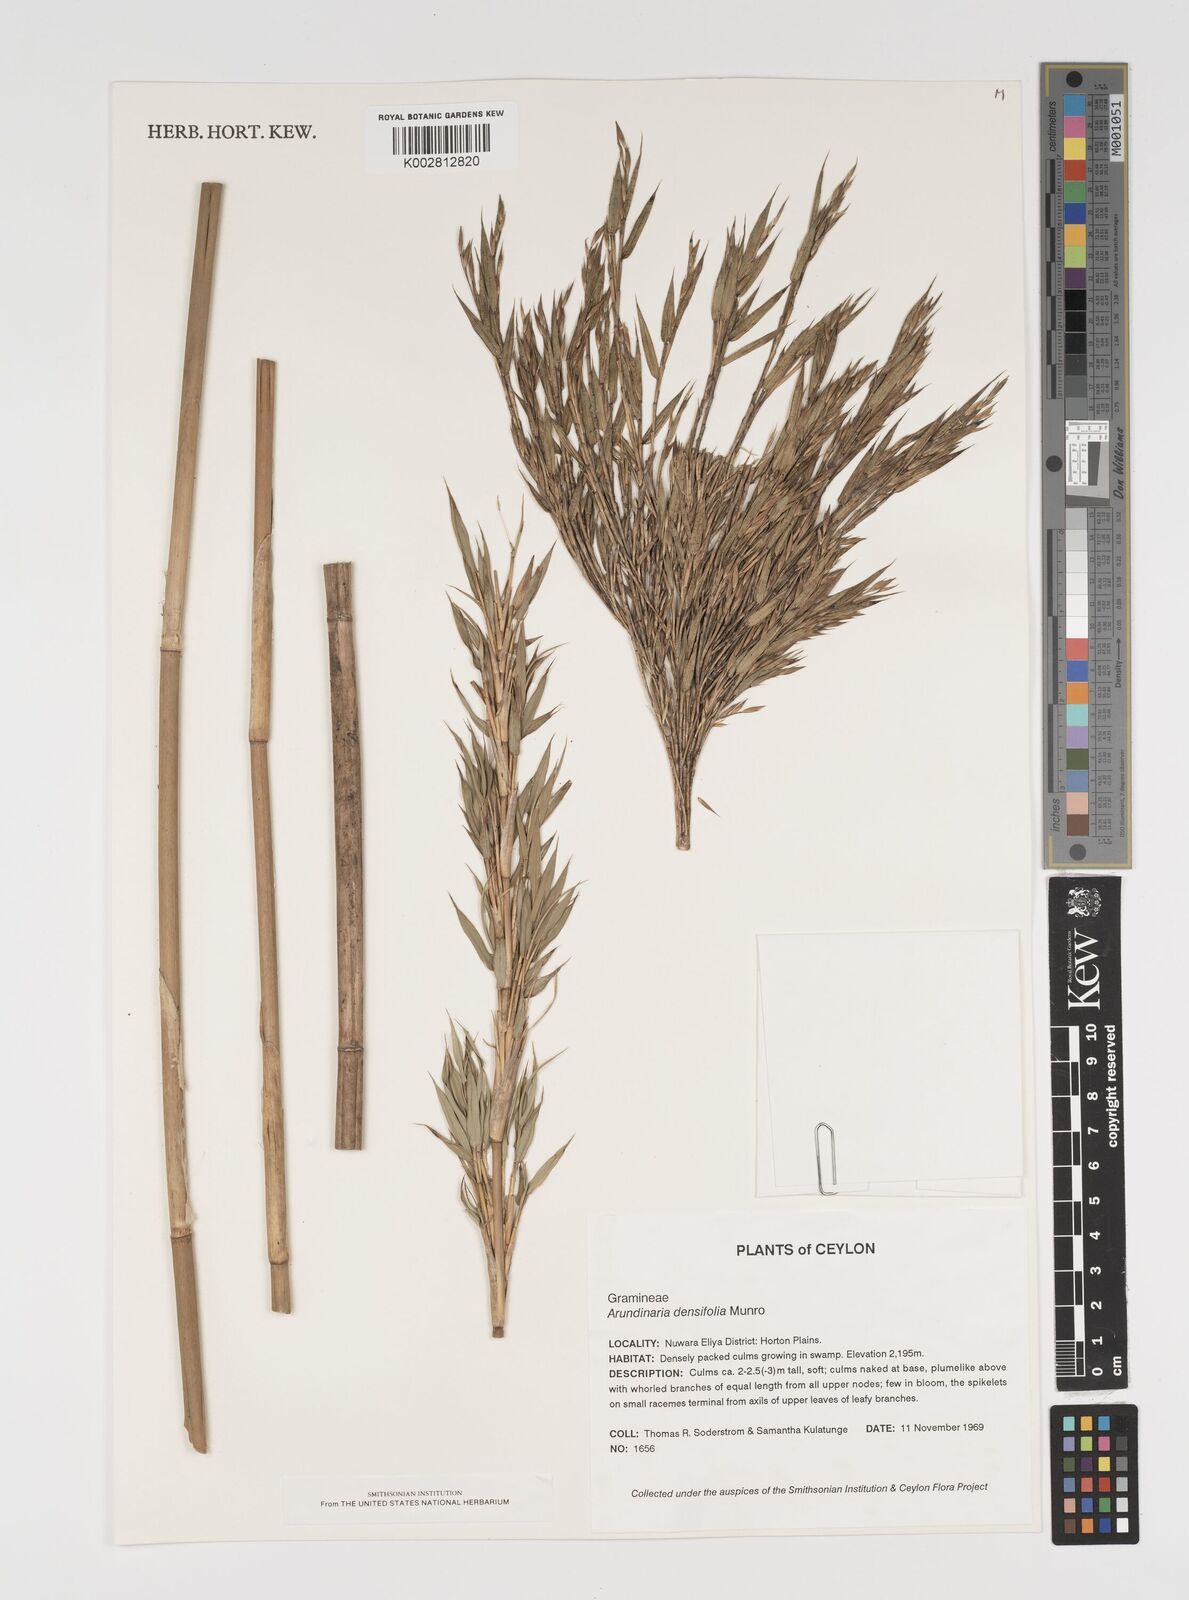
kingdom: Plantae
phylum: Tracheophyta
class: Liliopsida
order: Poales
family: Poaceae
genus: Kuruna
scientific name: Kuruna densifolia
